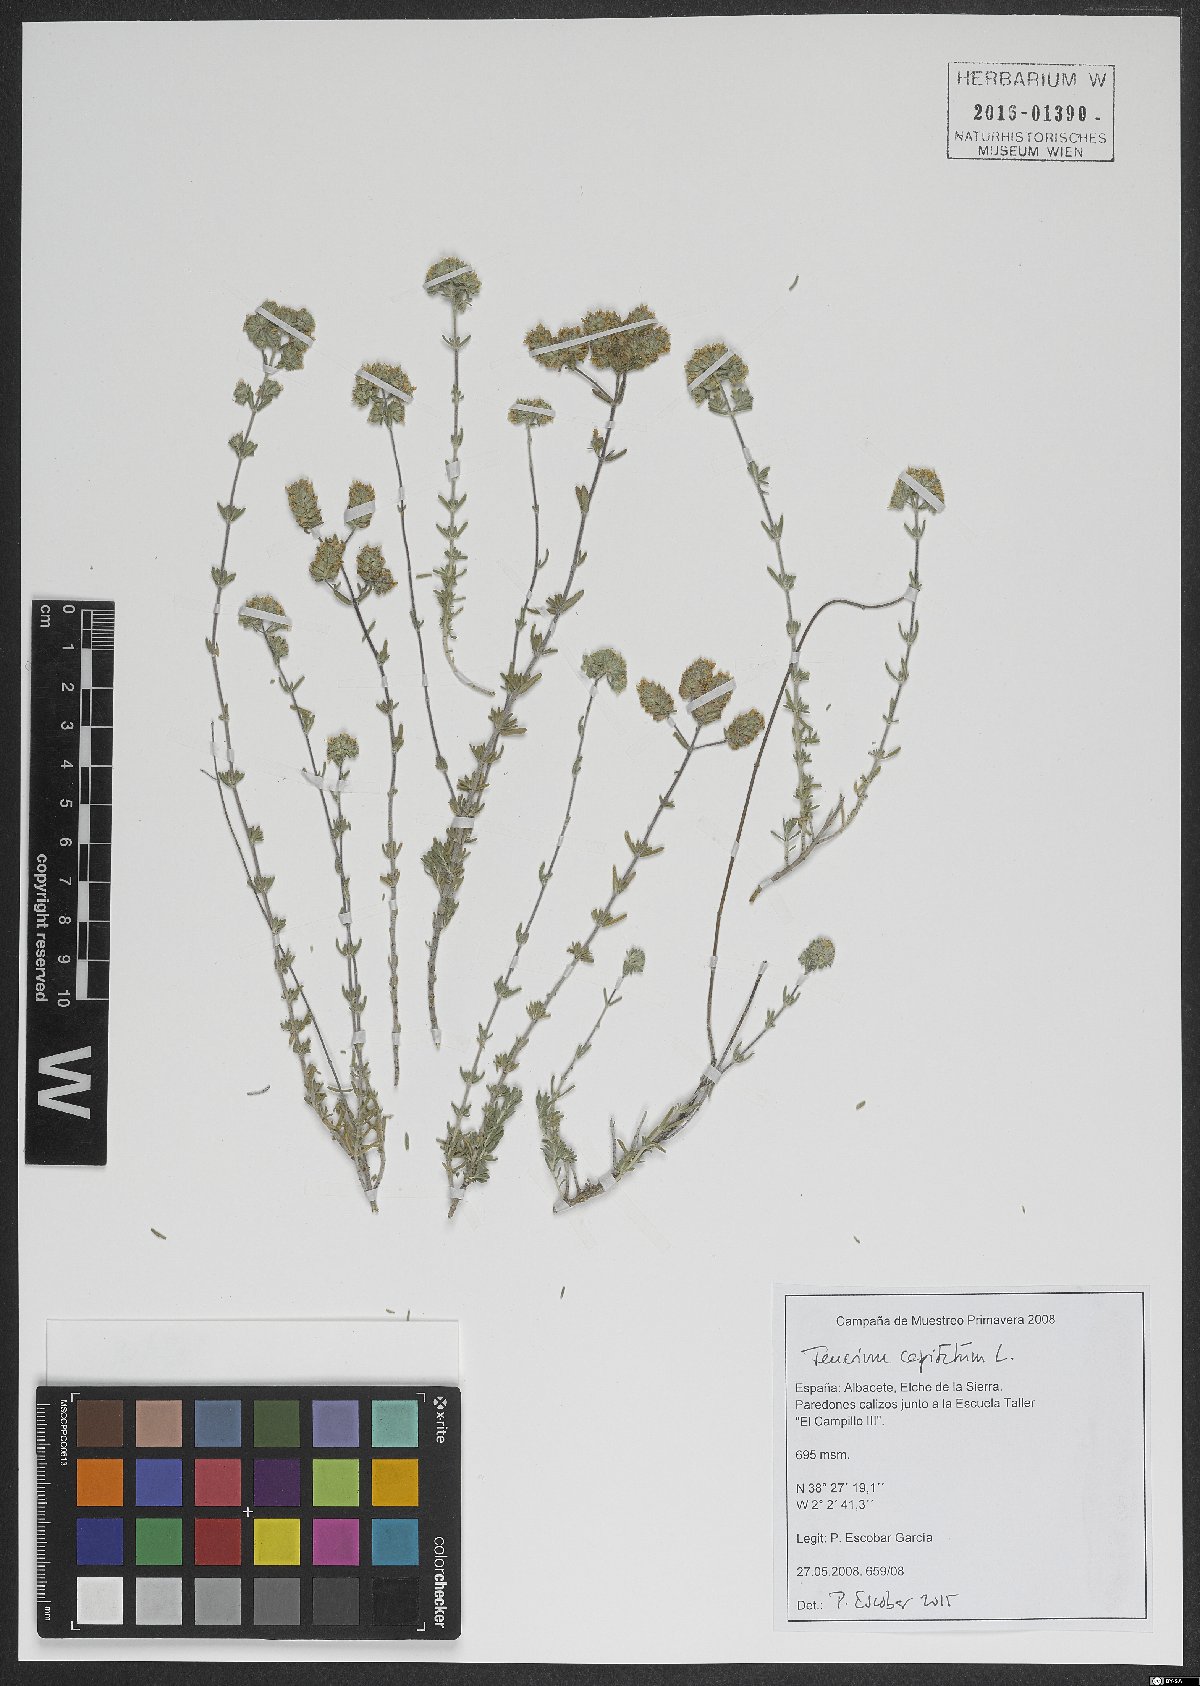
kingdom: Plantae
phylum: Tracheophyta
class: Magnoliopsida
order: Lamiales
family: Lamiaceae
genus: Teucrium
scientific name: Teucrium capitatum
